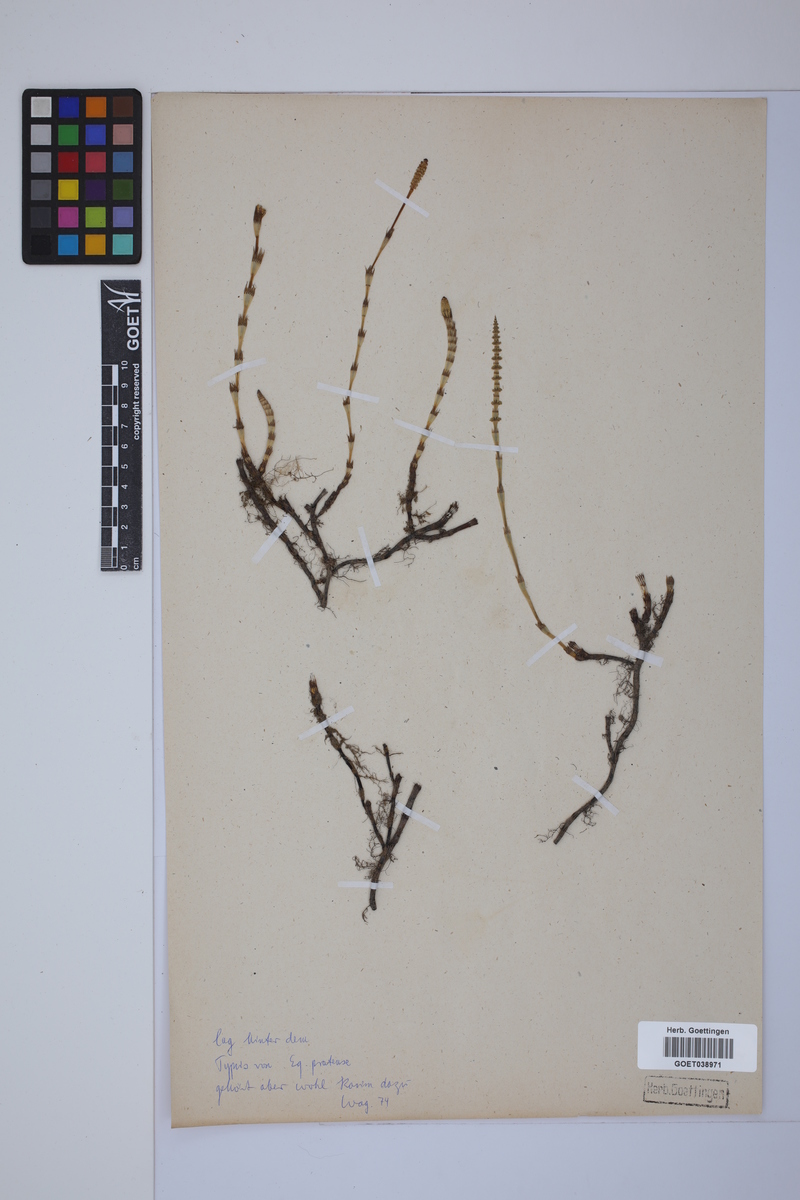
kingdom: Plantae
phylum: Tracheophyta
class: Polypodiopsida
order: Equisetales
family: Equisetaceae
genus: Equisetum
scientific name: Equisetum pratense
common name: Meadow horsetail
